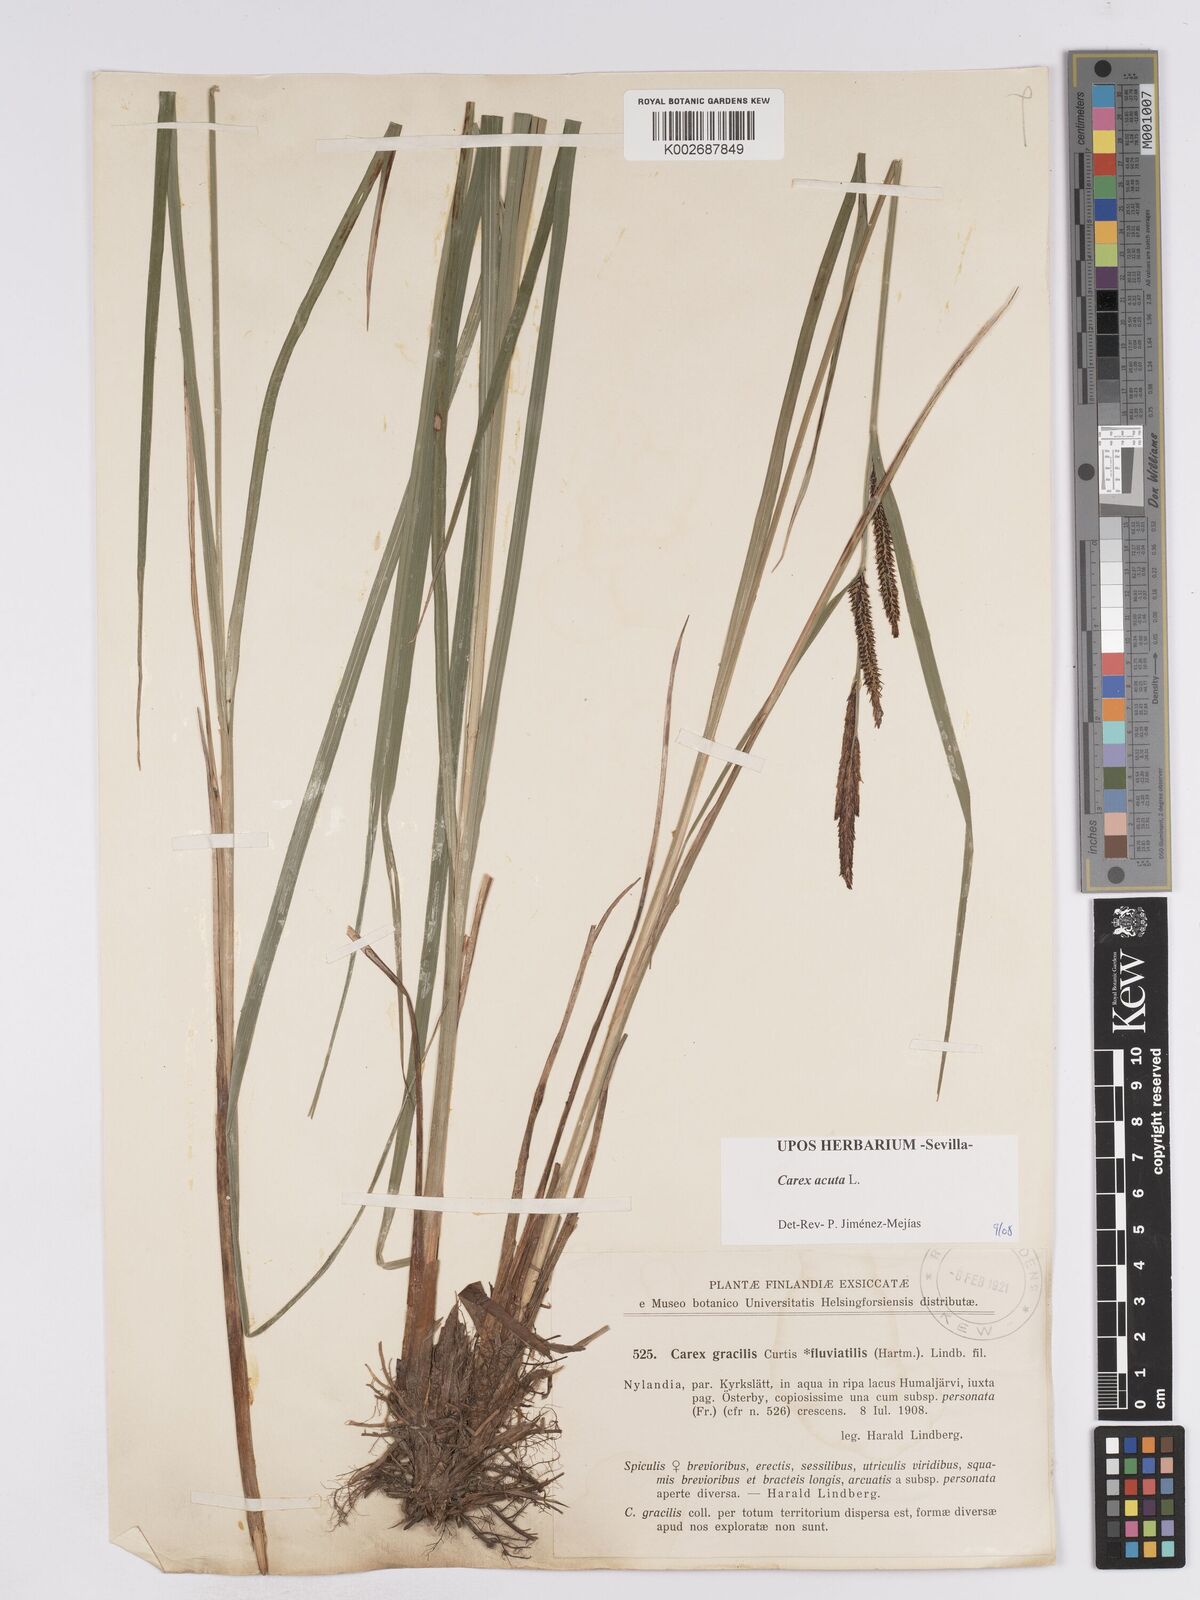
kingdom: Plantae
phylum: Tracheophyta
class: Liliopsida
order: Poales
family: Cyperaceae
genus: Carex
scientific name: Carex acuta
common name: Slender tufted-sedge
